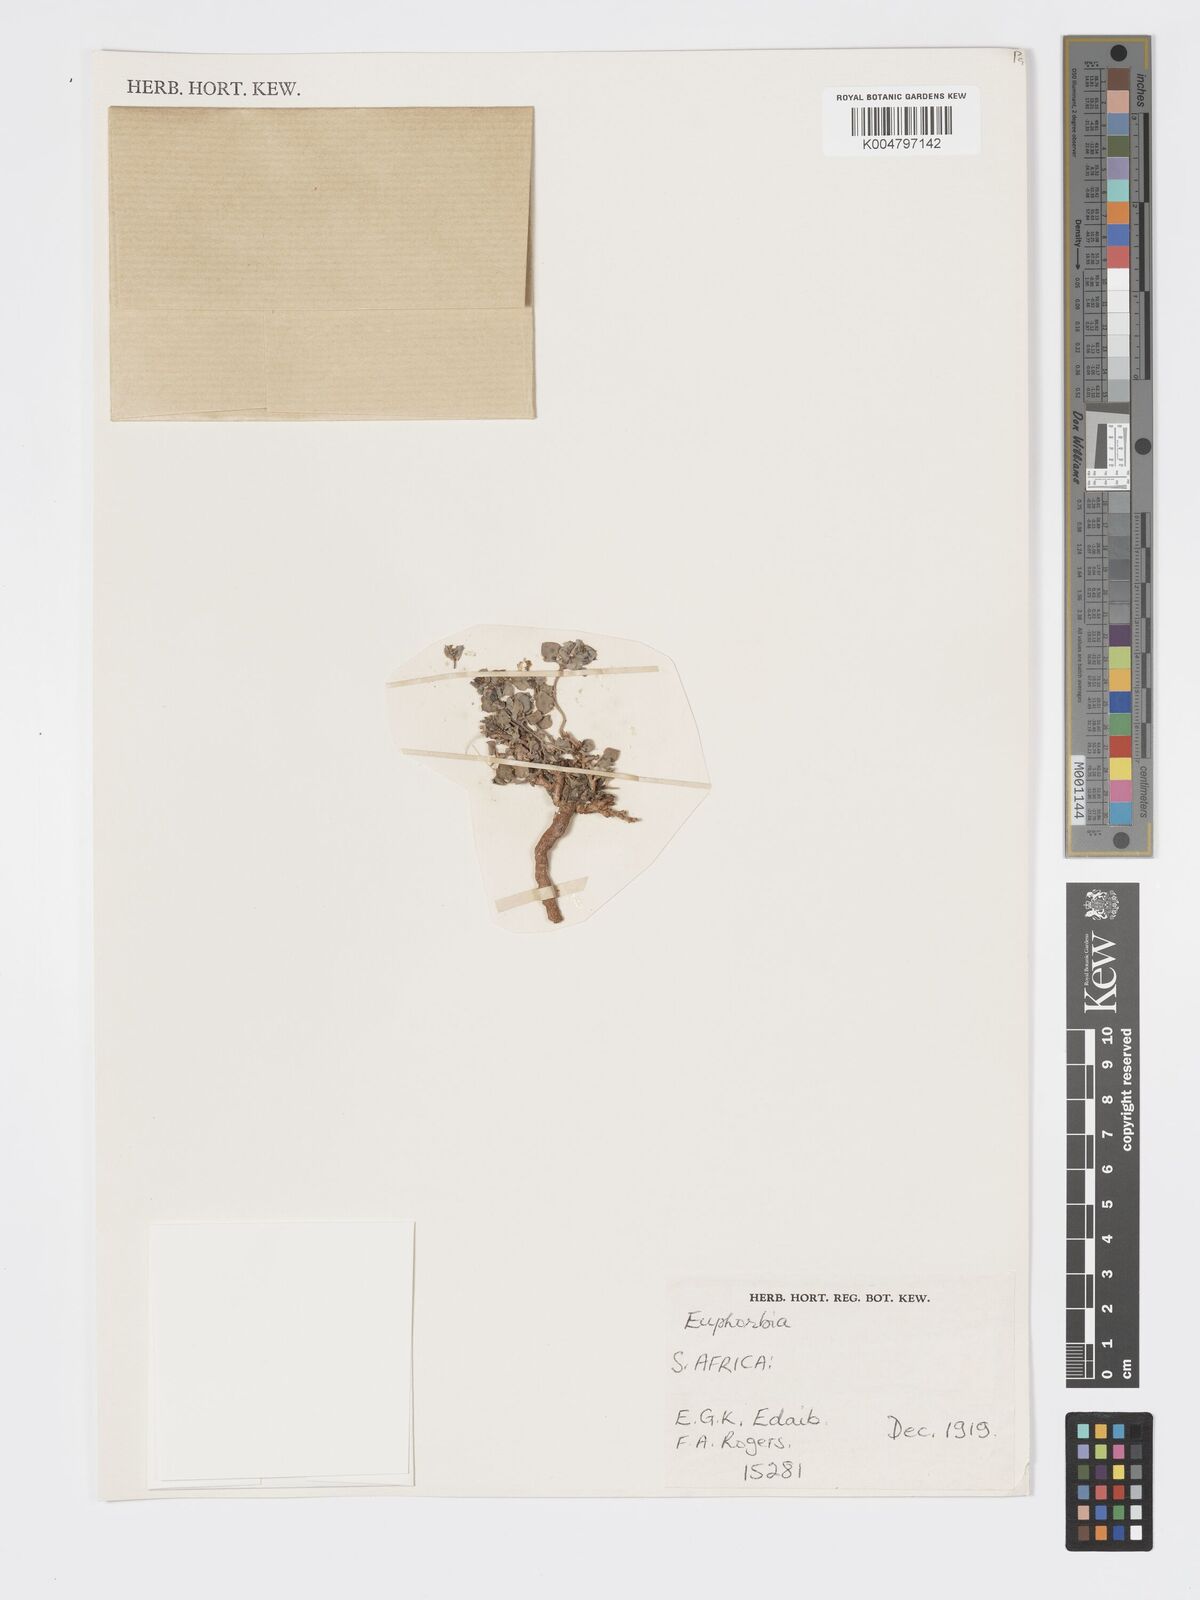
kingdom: Plantae
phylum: Tracheophyta
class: Magnoliopsida
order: Malpighiales
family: Euphorbiaceae
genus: Euphorbia
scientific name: Euphorbia
